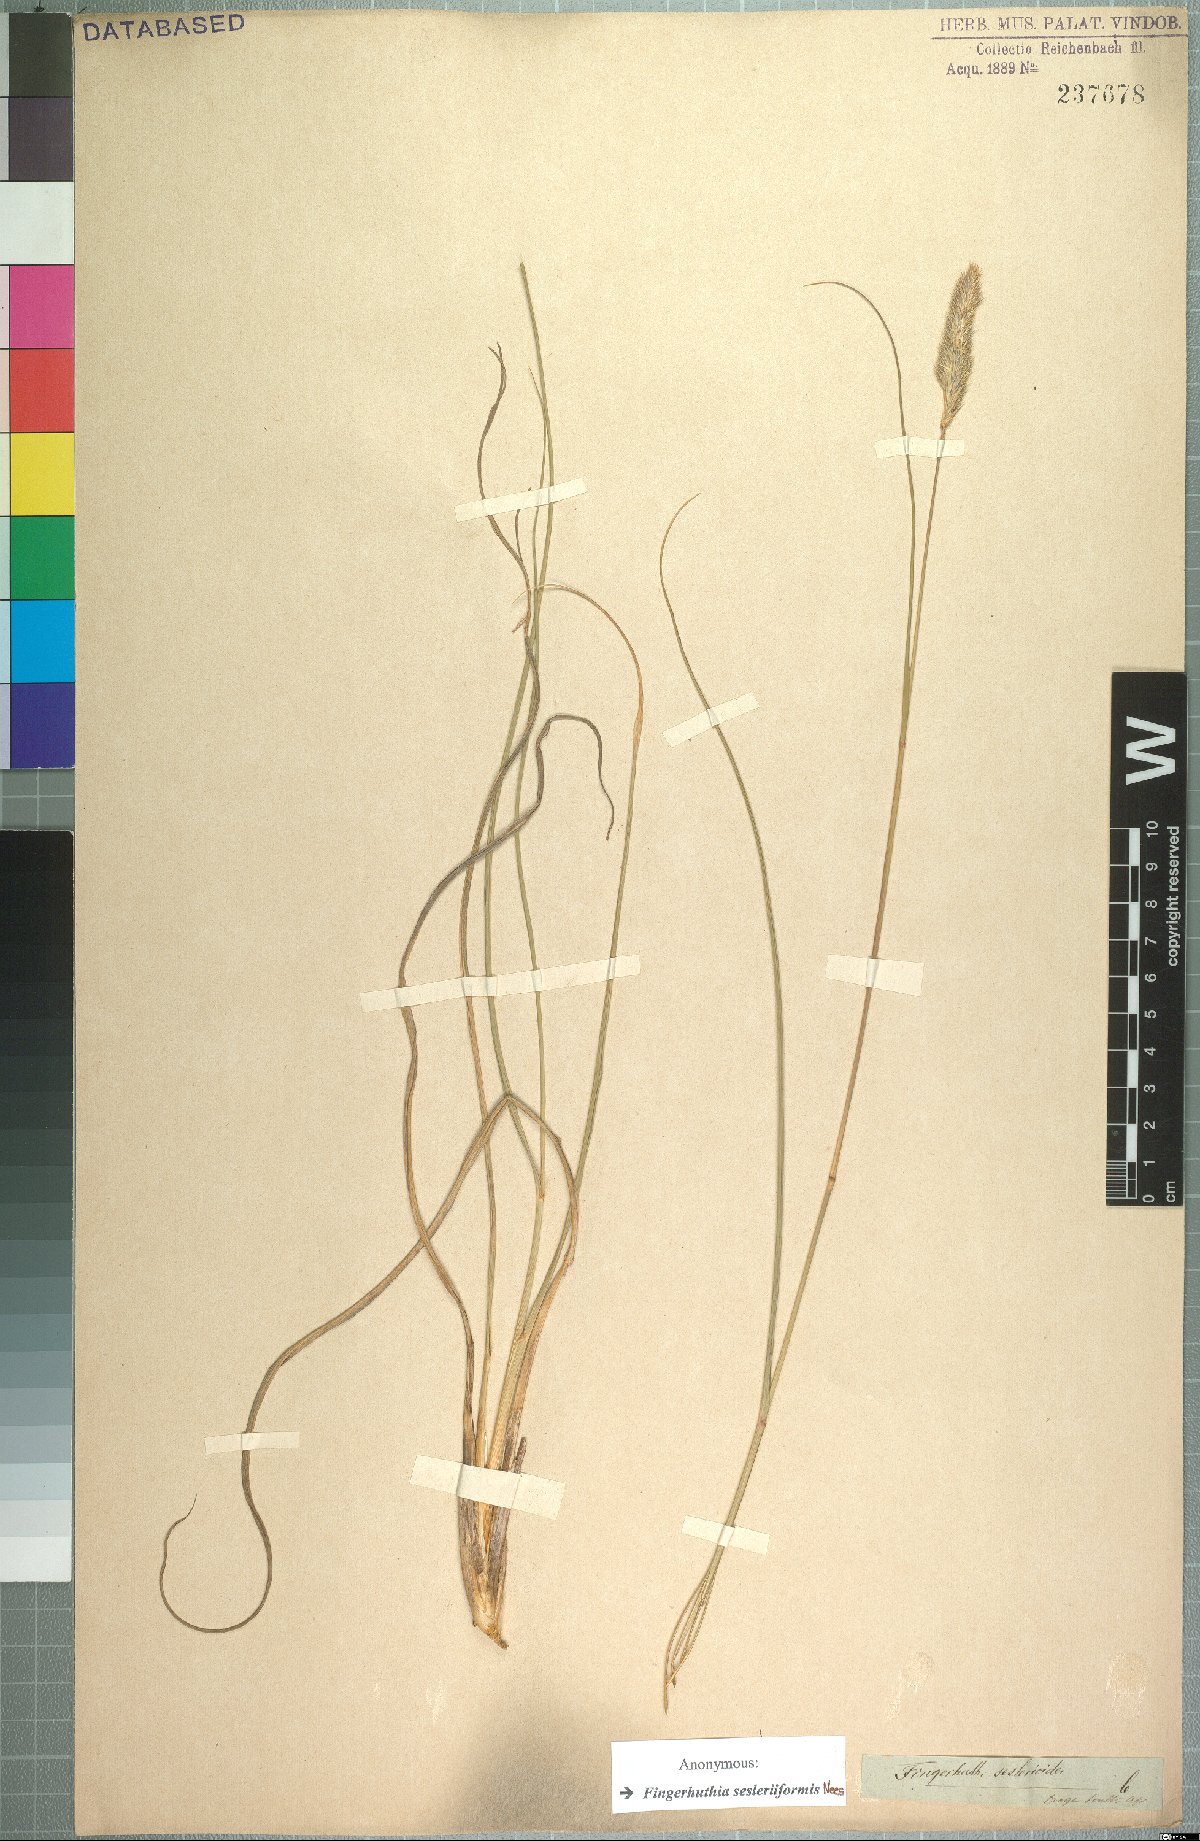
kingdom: Plantae
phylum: Tracheophyta
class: Liliopsida
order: Poales
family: Poaceae
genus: Fingerhuthia
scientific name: Fingerhuthia sesleriiformis
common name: Thimble grass
